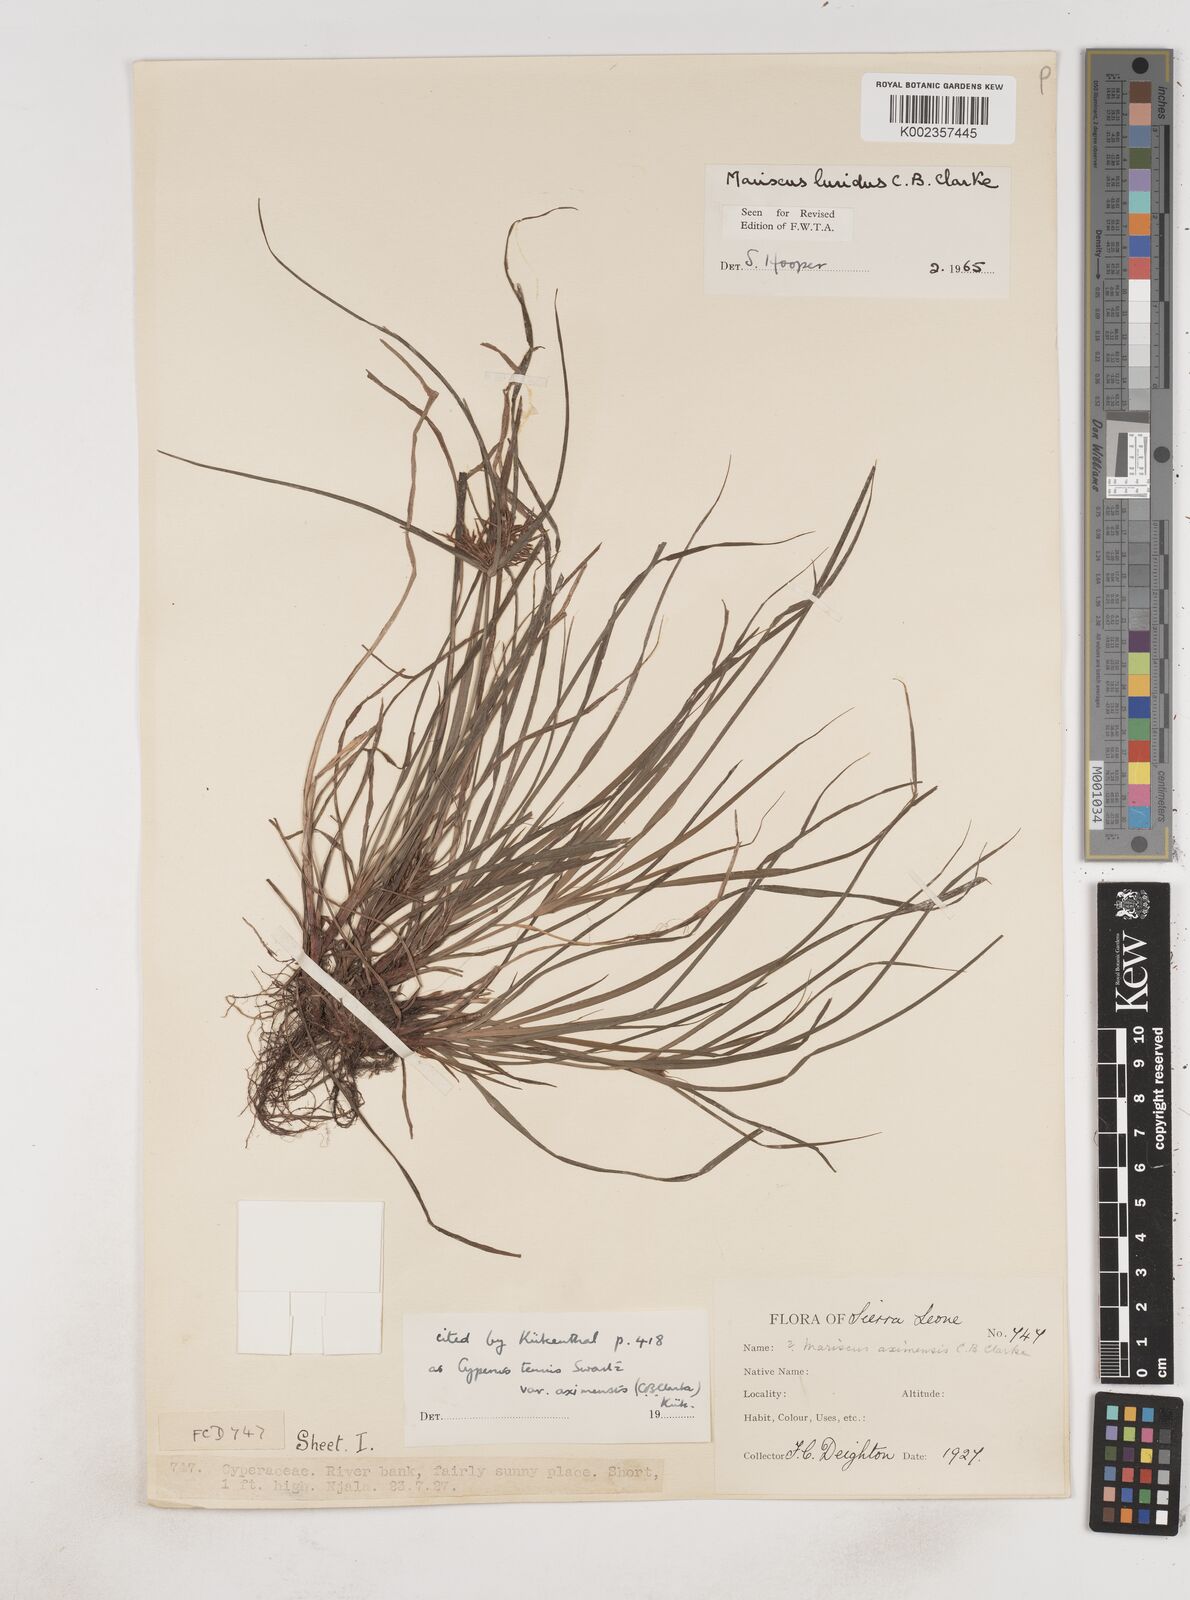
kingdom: Plantae
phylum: Tracheophyta
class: Liliopsida
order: Poales
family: Cyperaceae
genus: Cyperus
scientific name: Cyperus tenuis
